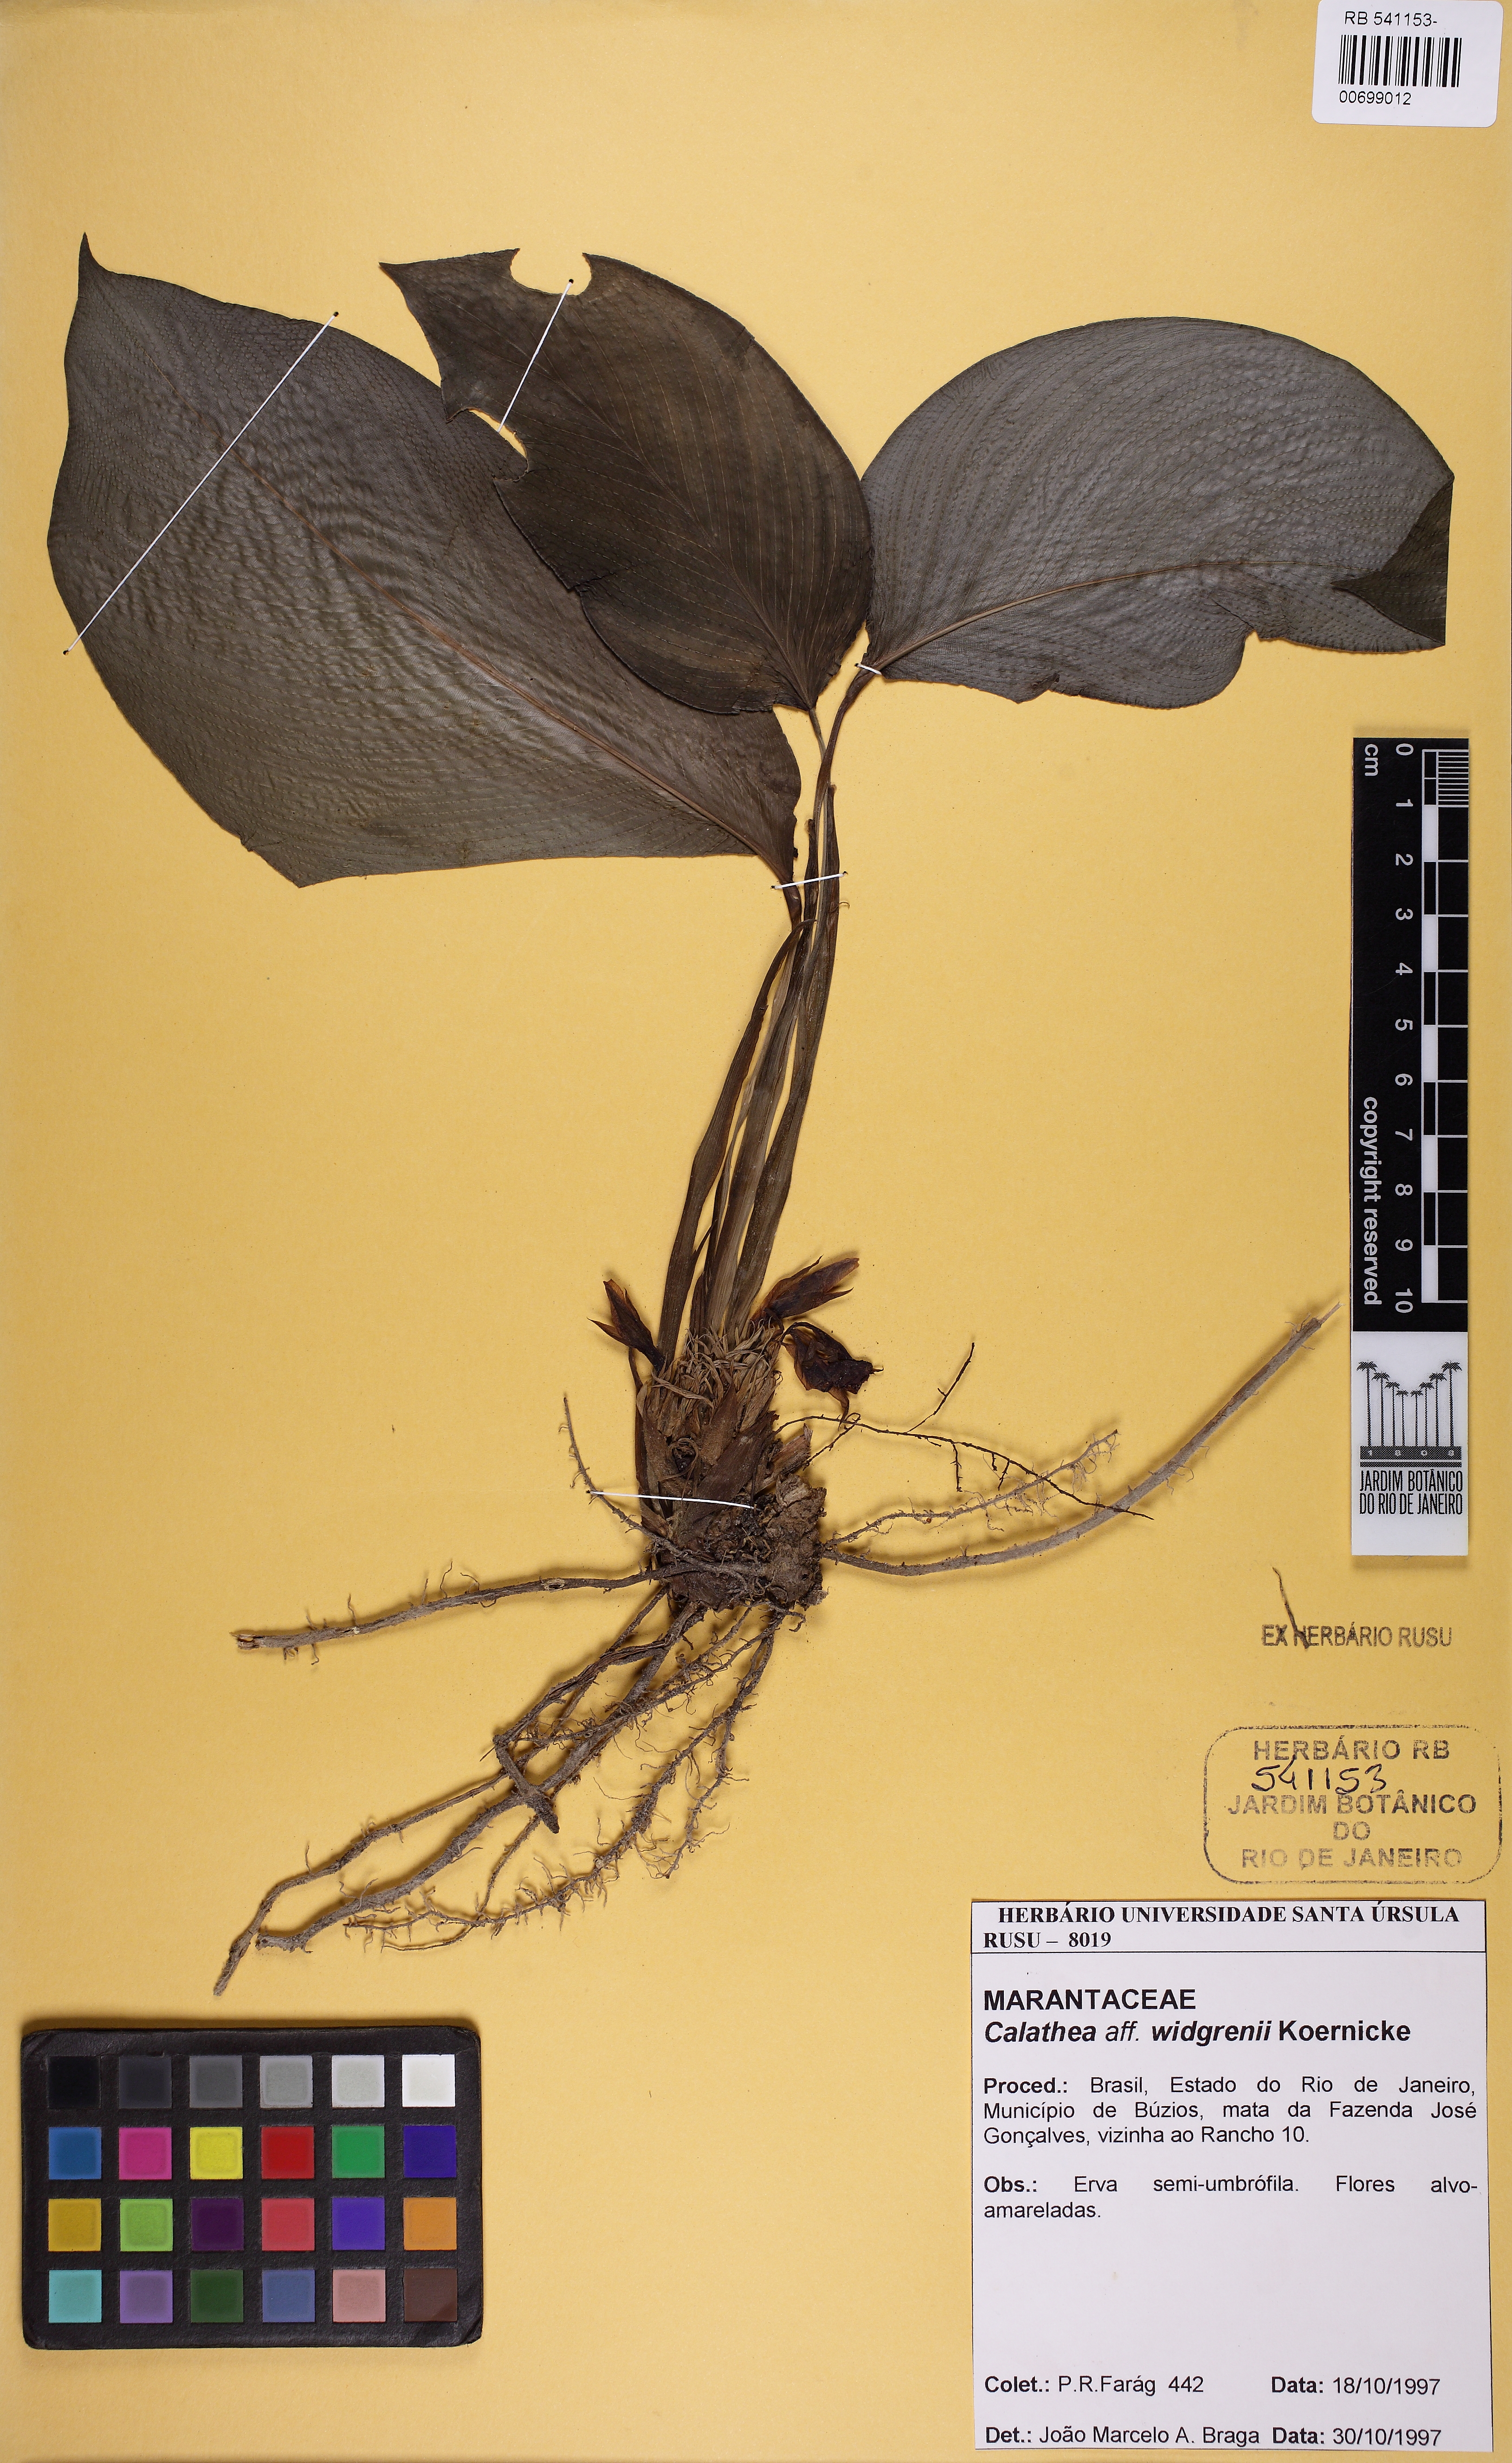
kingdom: Plantae
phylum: Tracheophyta
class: Liliopsida
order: Zingiberales
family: Marantaceae
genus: Goeppertia
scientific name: Goeppertia widgrenii
